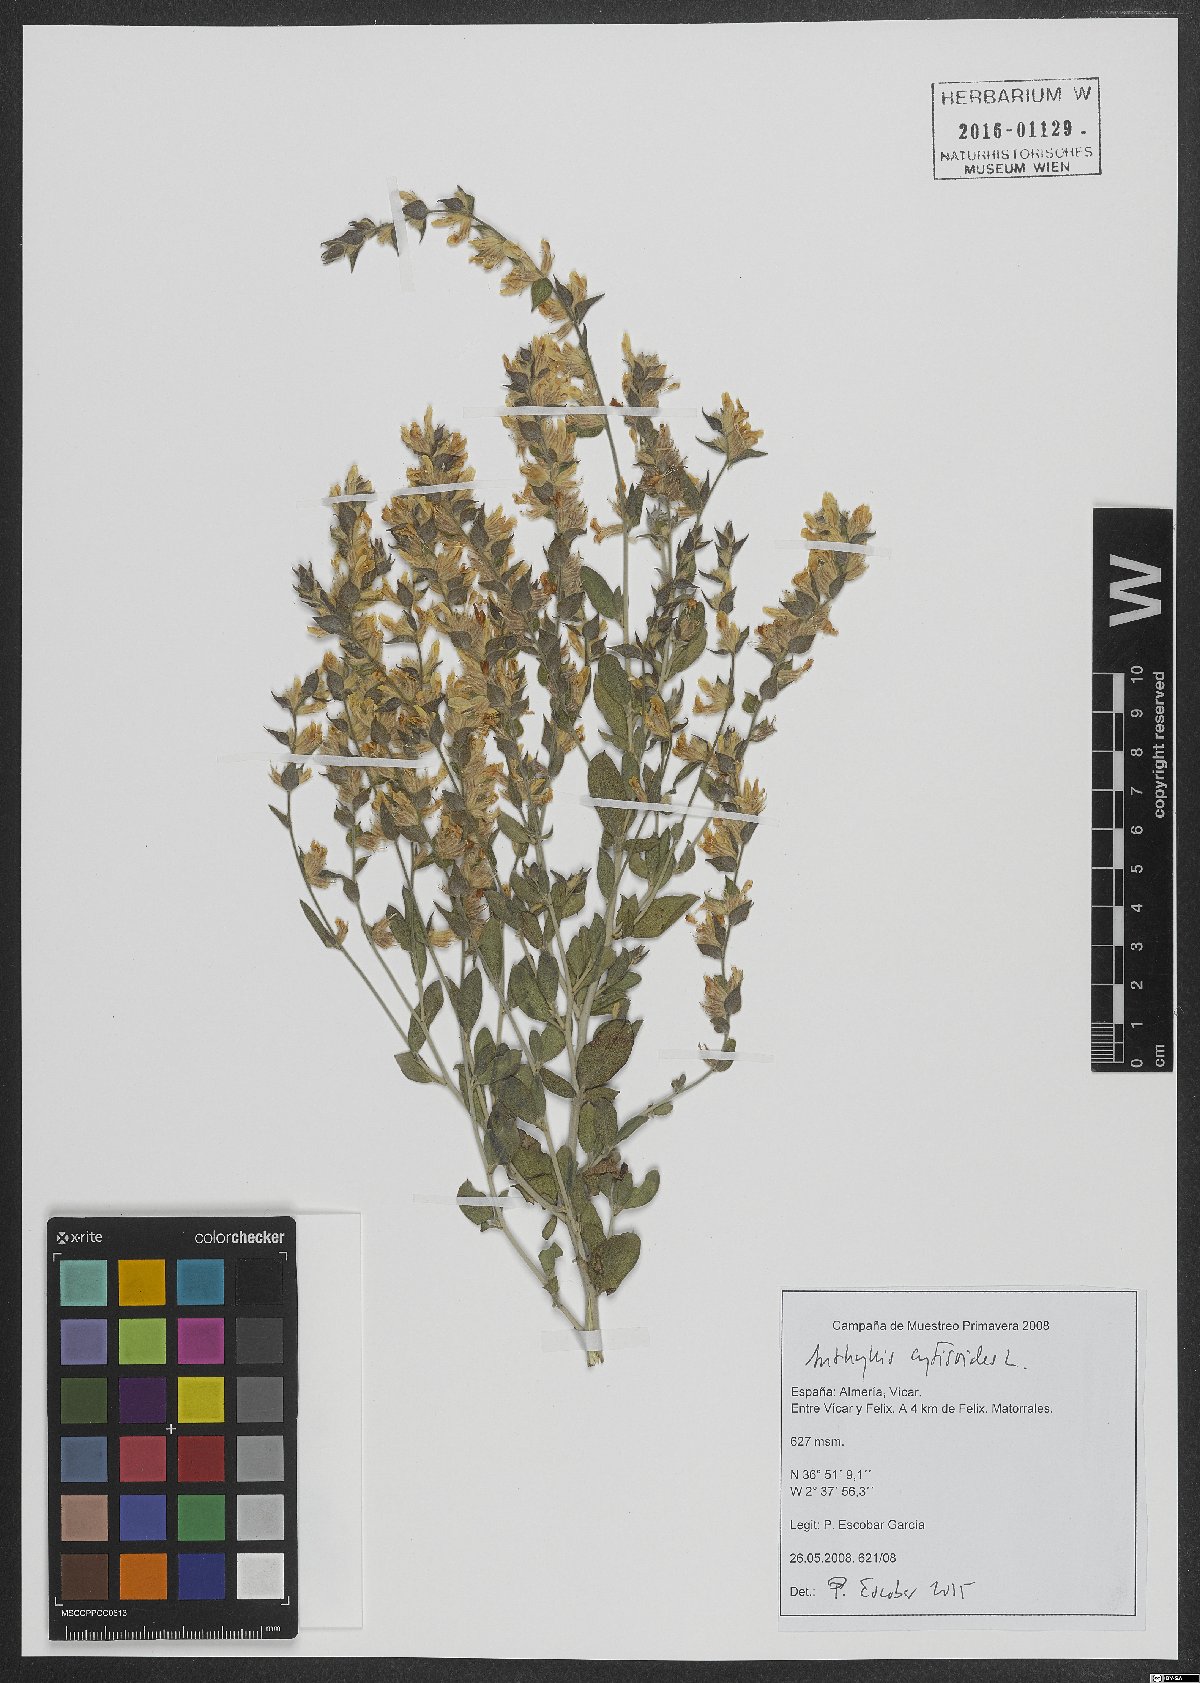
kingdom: Plantae
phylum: Tracheophyta
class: Magnoliopsida
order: Fabales
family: Fabaceae
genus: Anthyllis
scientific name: Anthyllis cytisoides
